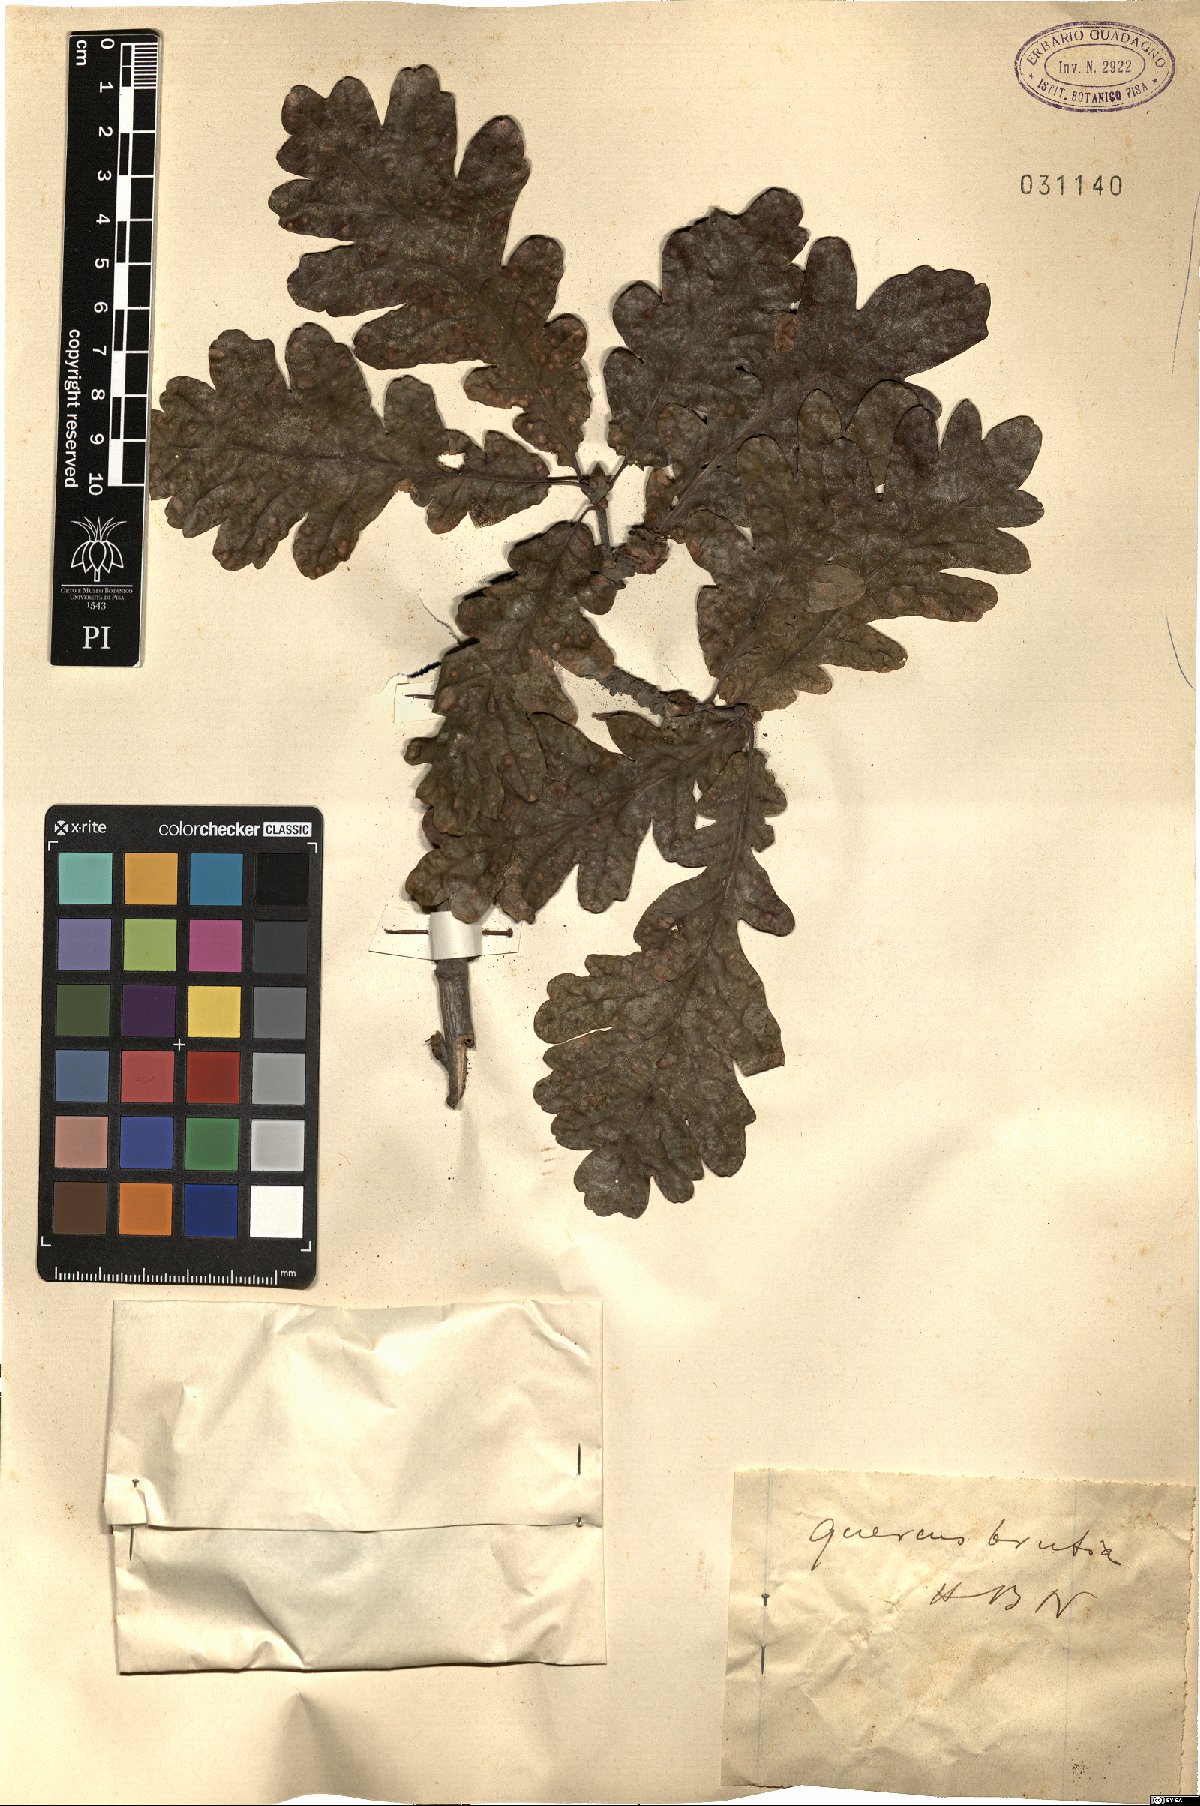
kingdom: Plantae
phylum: Tracheophyta
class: Magnoliopsida
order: Fagales
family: Fagaceae
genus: Quercus
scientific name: Quercus robur
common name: Pedunculate oak
